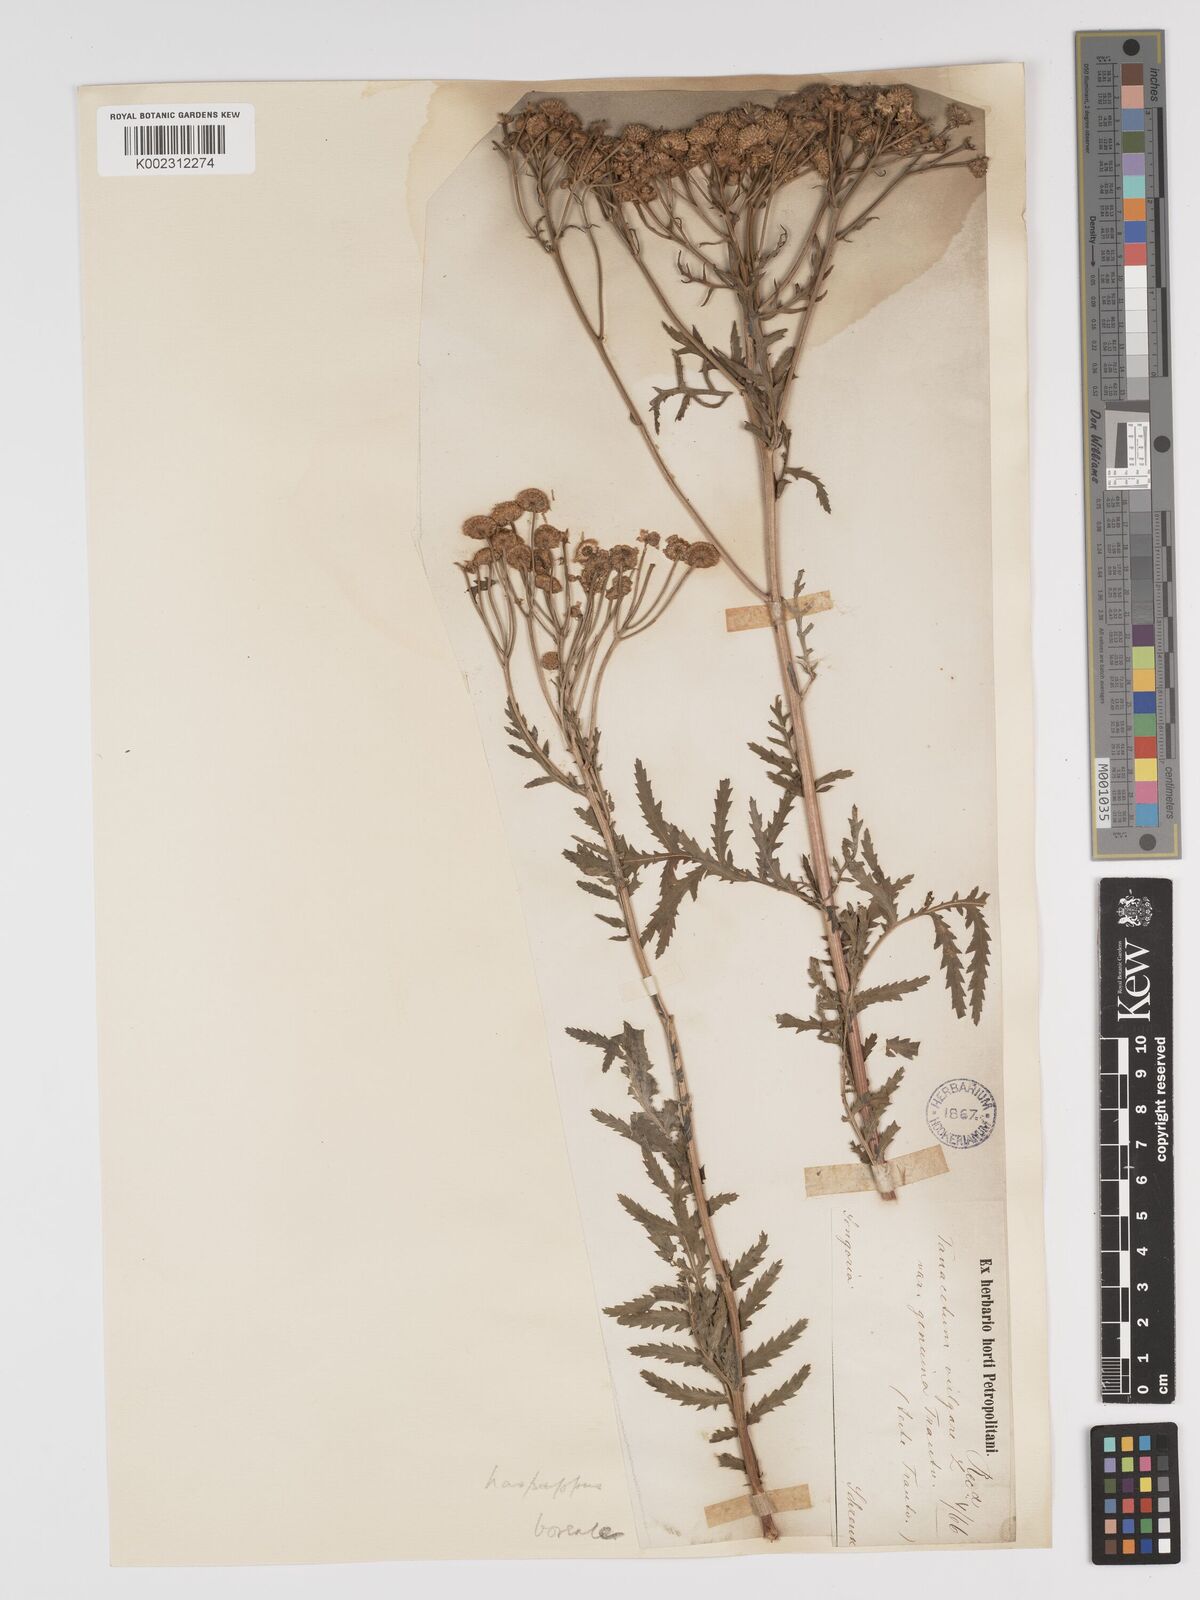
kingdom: Plantae
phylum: Tracheophyta
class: Magnoliopsida
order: Asterales
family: Asteraceae
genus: Tanacetum
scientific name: Tanacetum vulgare
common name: Common tansy
